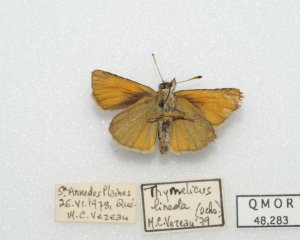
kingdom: Animalia
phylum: Arthropoda
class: Insecta
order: Lepidoptera
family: Hesperiidae
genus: Thymelicus
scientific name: Thymelicus lineola
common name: European Skipper
